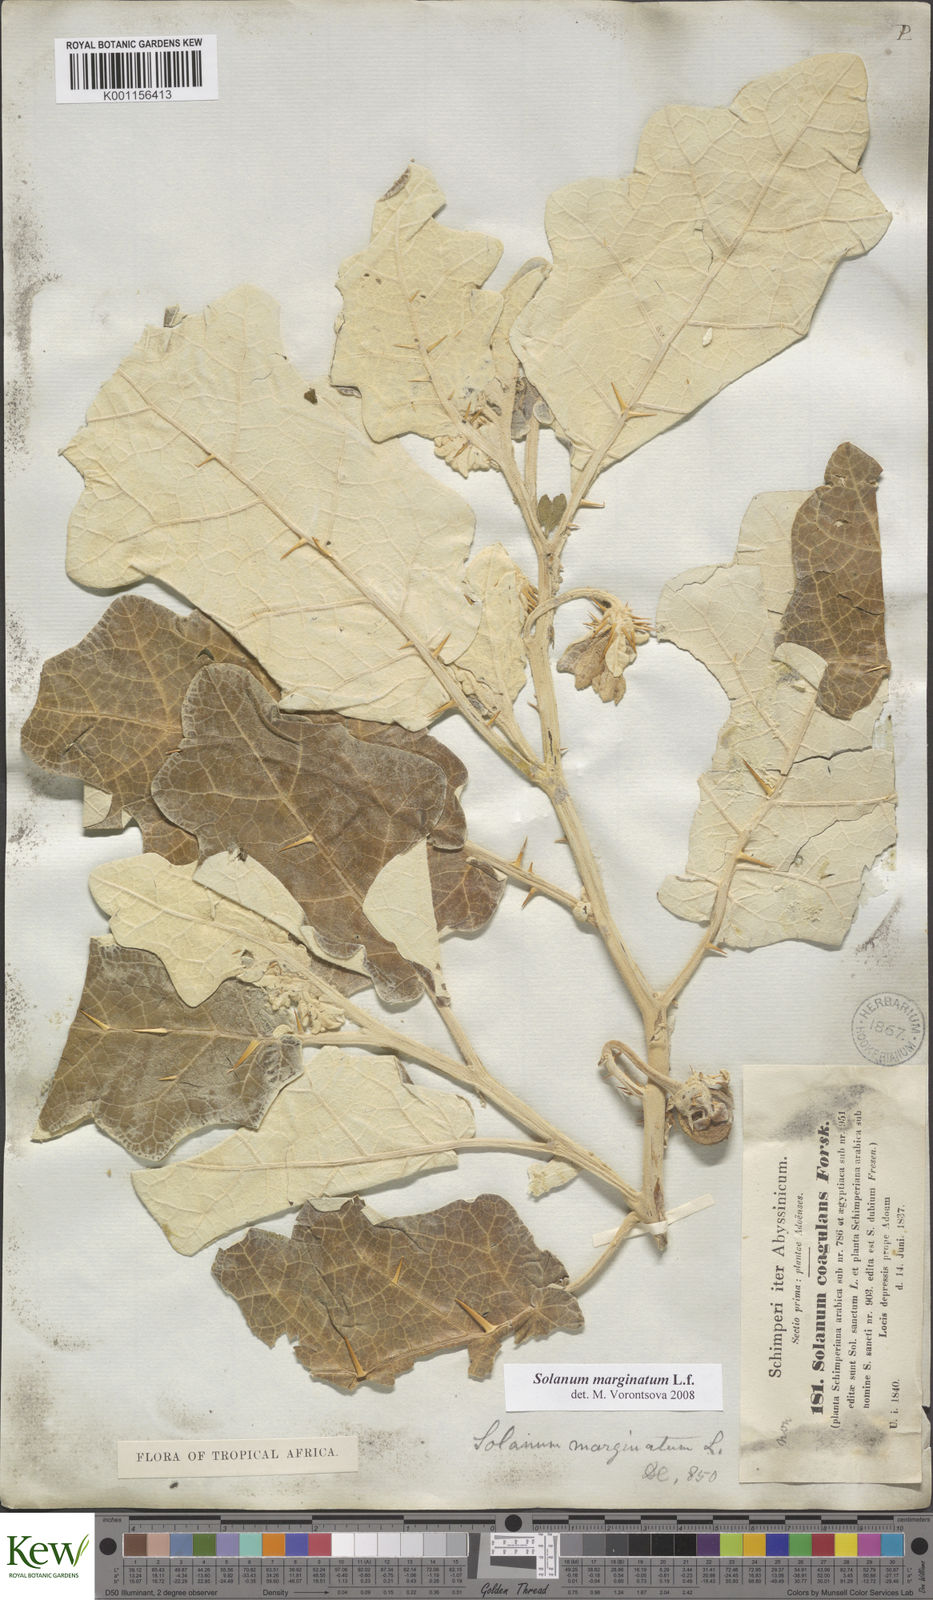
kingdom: Plantae
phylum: Tracheophyta
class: Magnoliopsida
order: Solanales
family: Solanaceae
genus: Solanum
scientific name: Solanum marginatum
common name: Purple african nightshade
